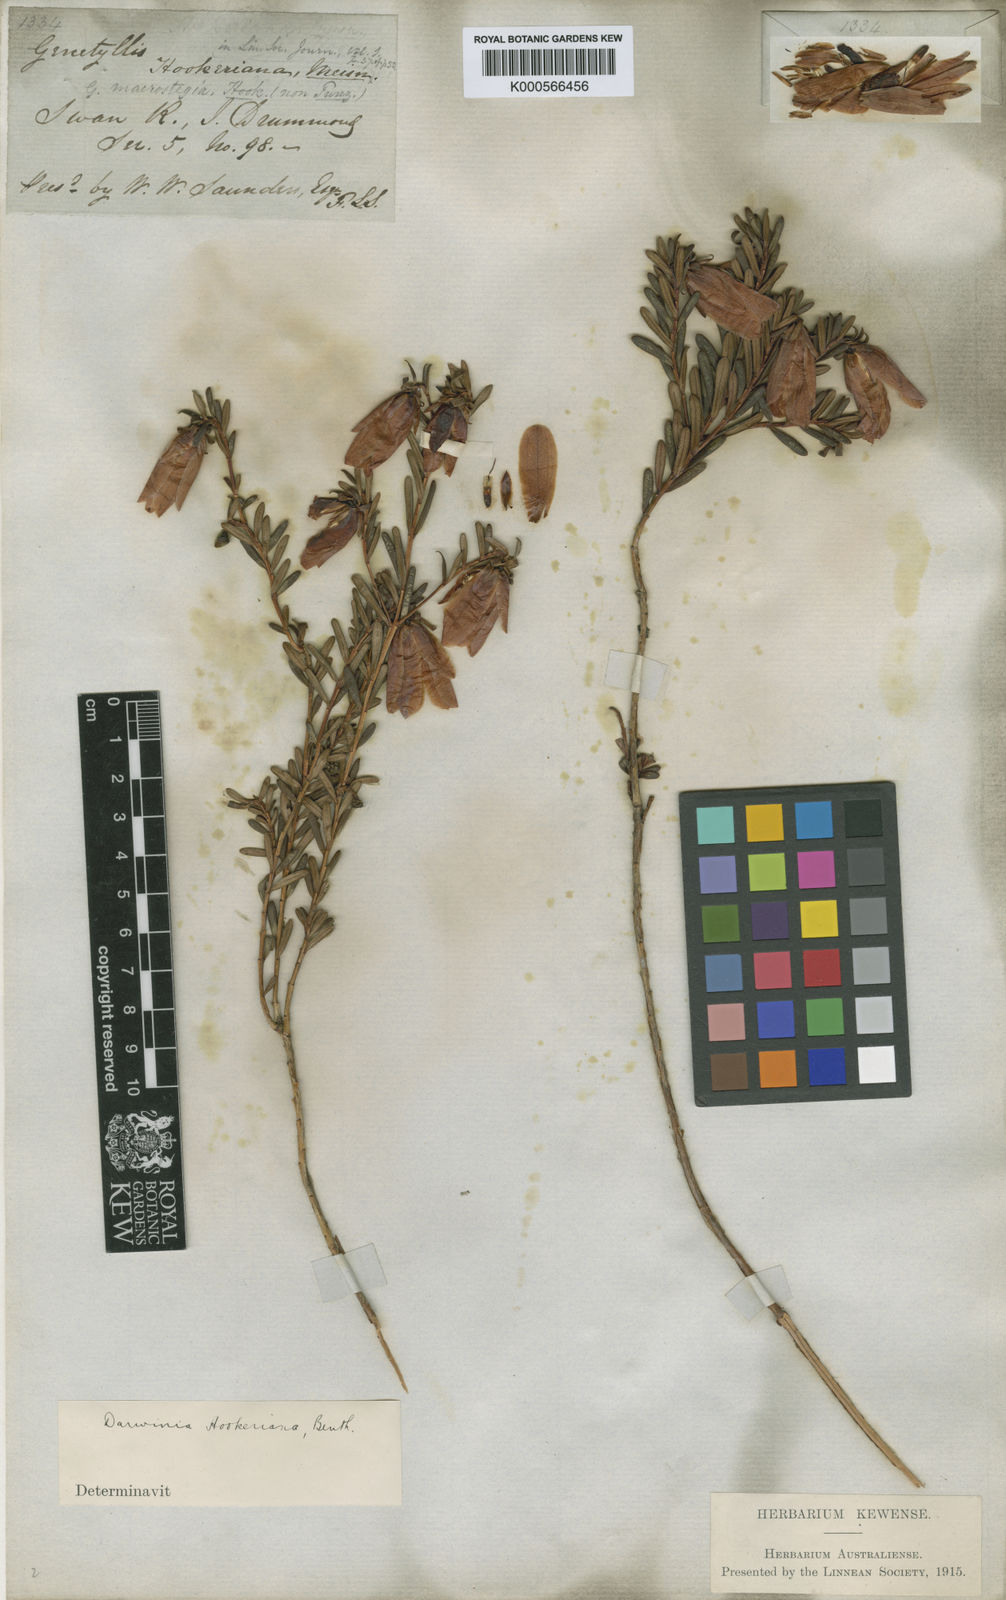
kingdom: Plantae
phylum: Tracheophyta
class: Magnoliopsida
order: Myrtales
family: Myrtaceae
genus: Darwinia
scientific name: Darwinia hypericifolia
